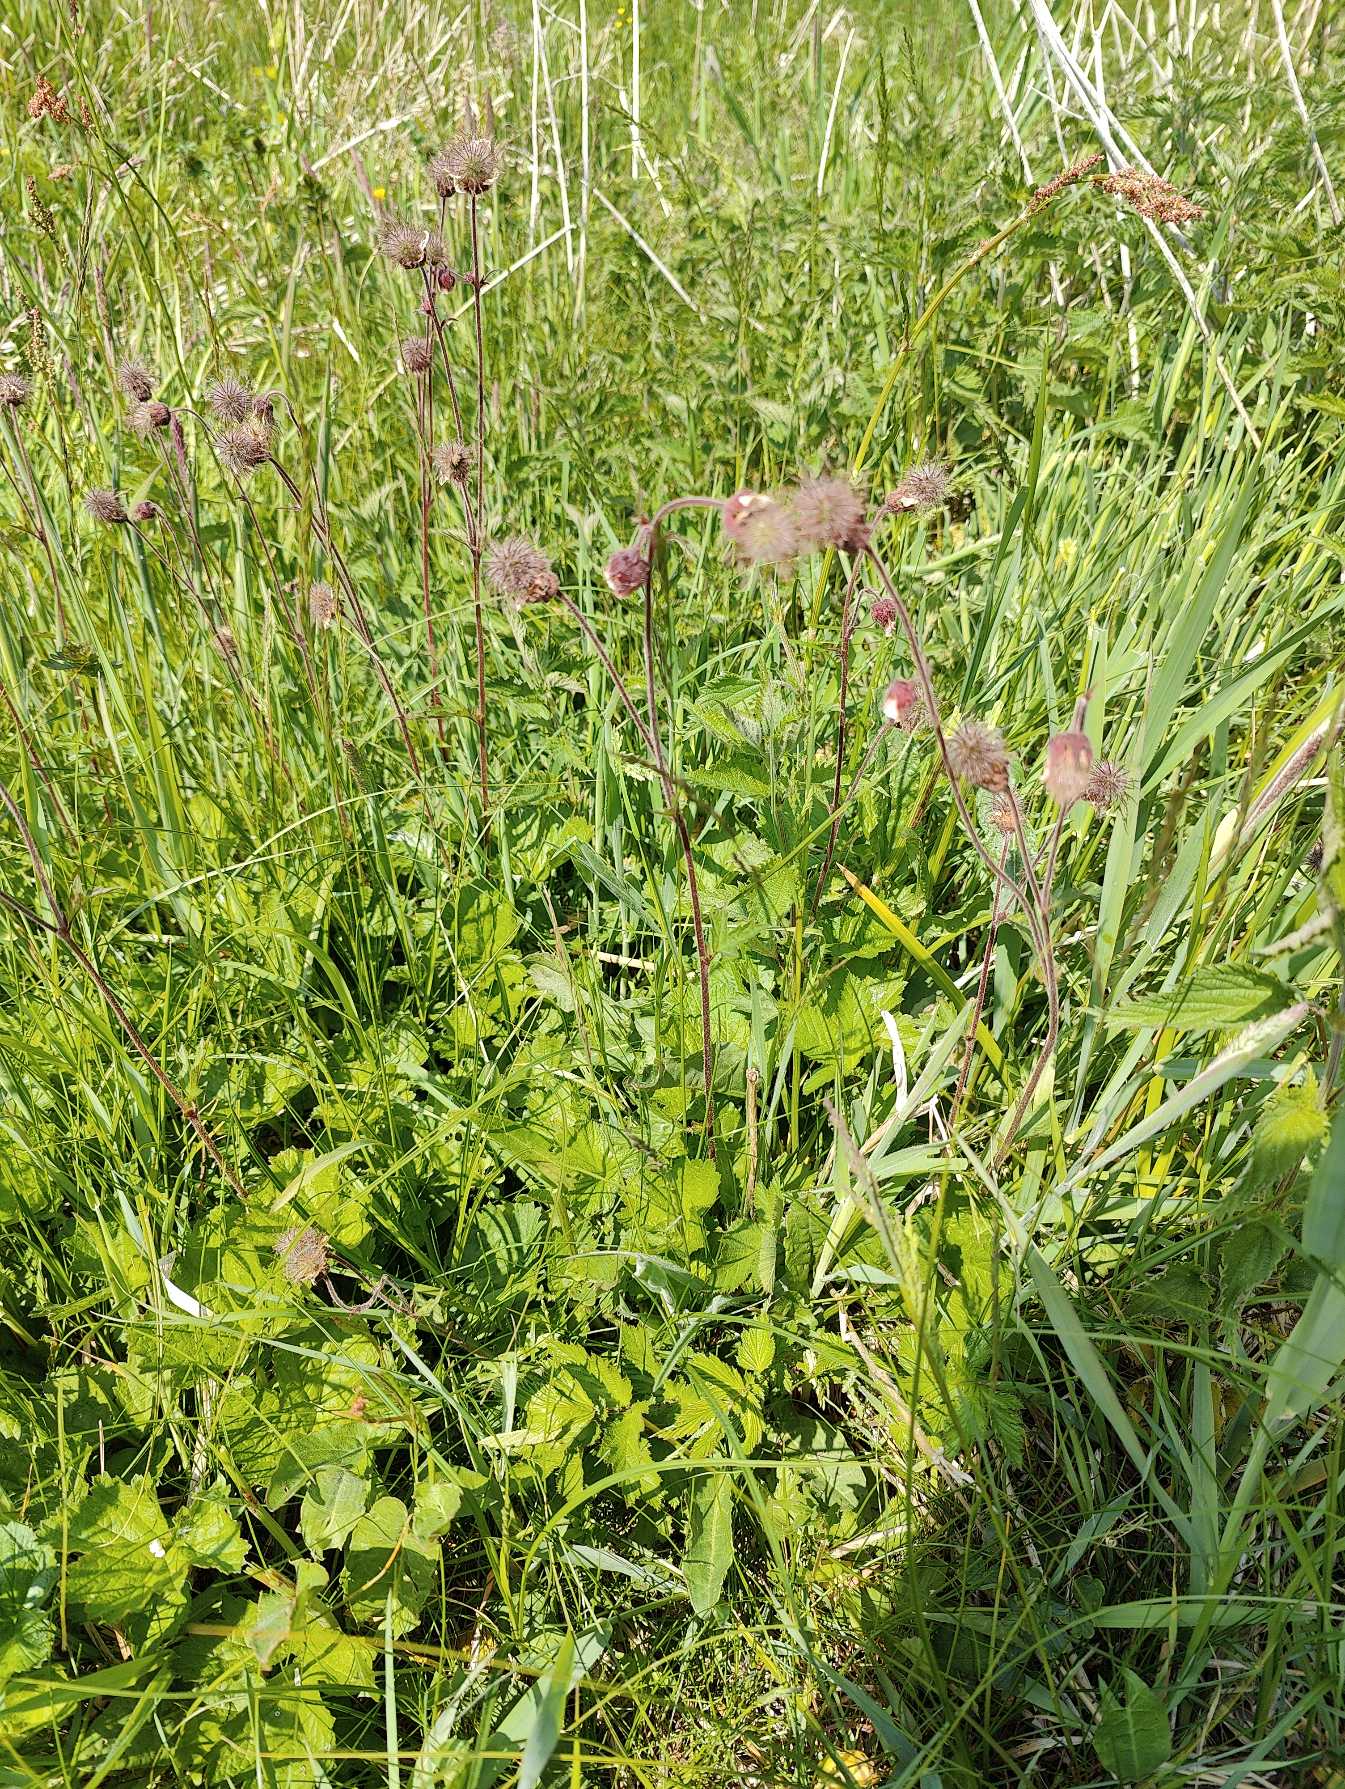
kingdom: Plantae
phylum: Tracheophyta
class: Magnoliopsida
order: Rosales
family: Rosaceae
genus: Geum
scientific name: Geum rivale
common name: Eng-nellikerod
